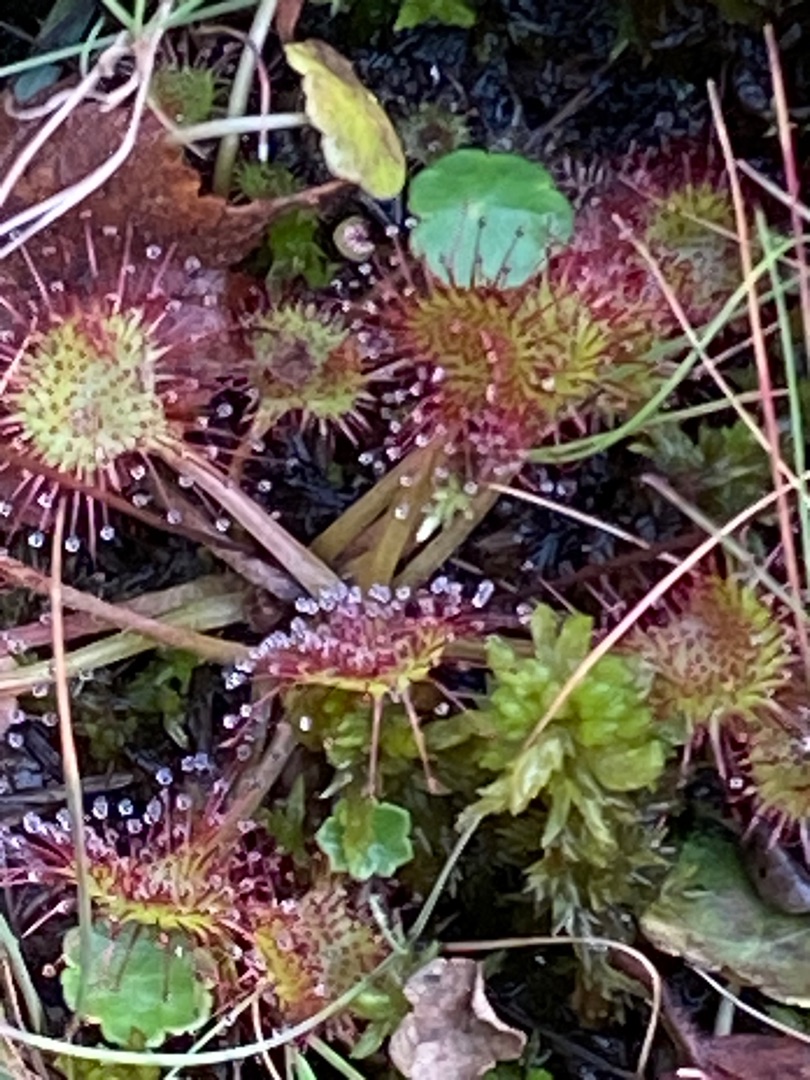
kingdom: Plantae
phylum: Tracheophyta
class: Magnoliopsida
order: Caryophyllales
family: Droseraceae
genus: Drosera
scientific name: Drosera rotundifolia
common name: Rundbladet soldug
